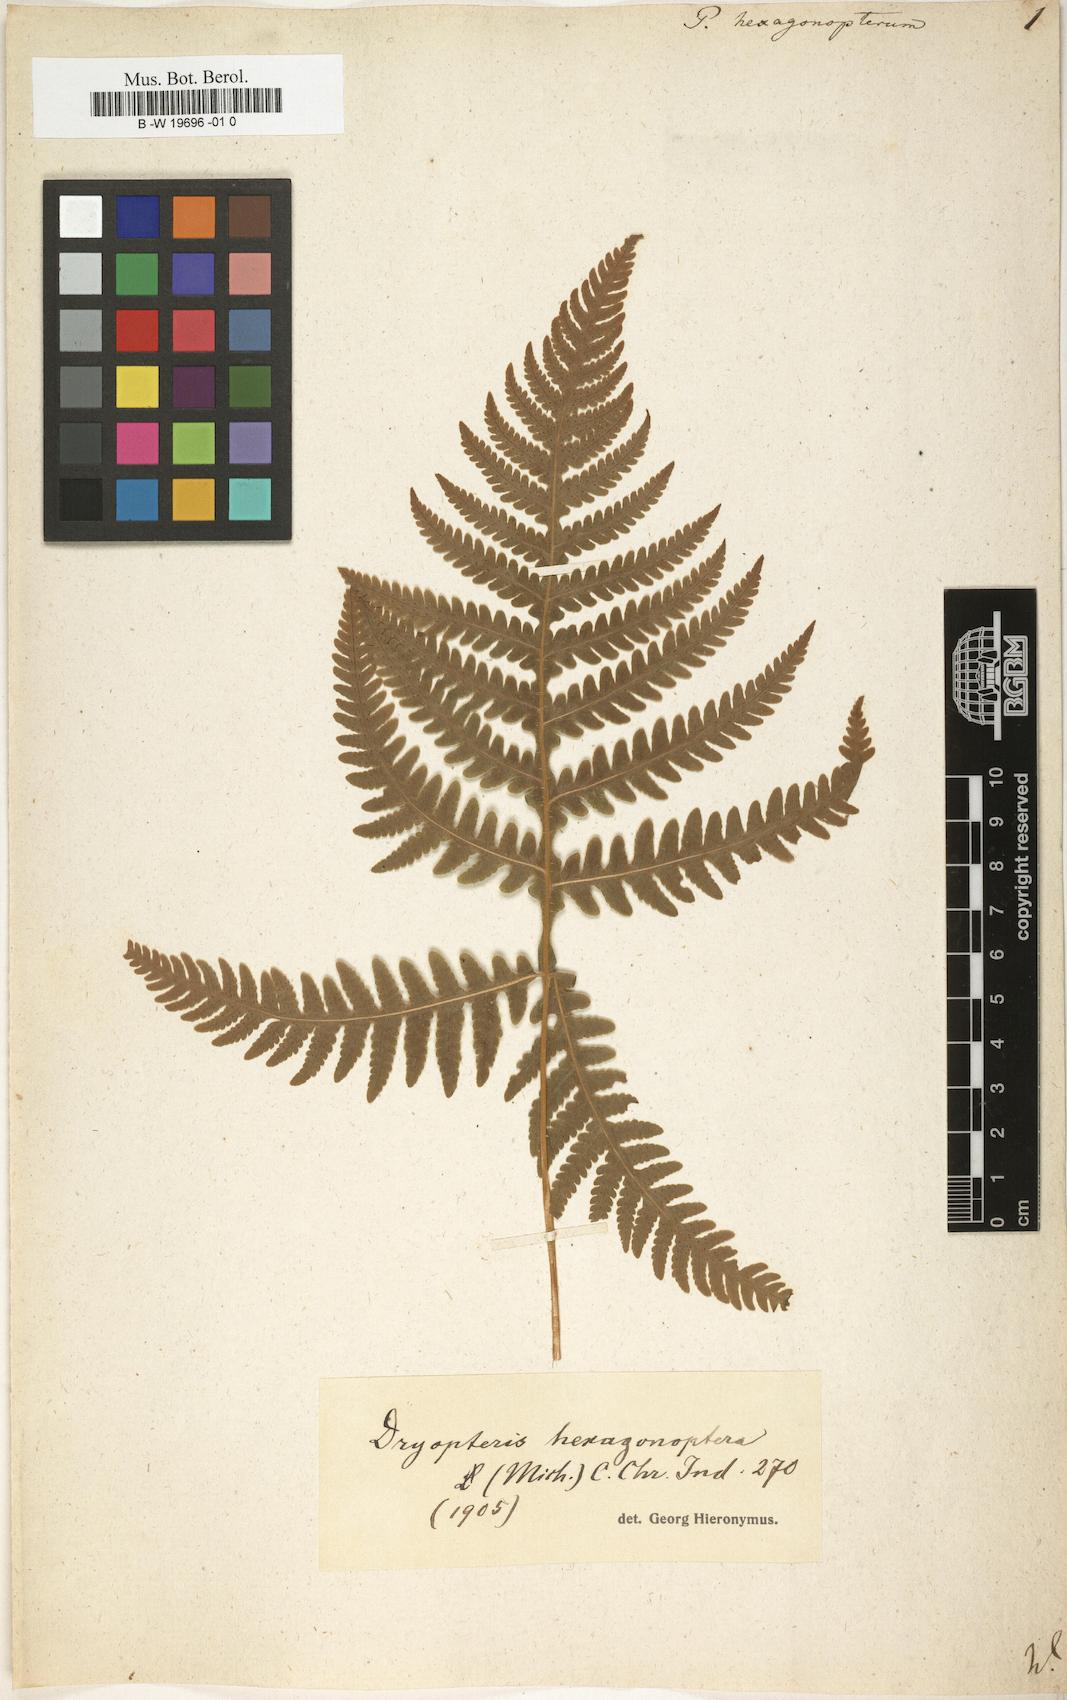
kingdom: Plantae
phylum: Tracheophyta
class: Polypodiopsida
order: Polypodiales
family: Thelypteridaceae
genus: Phegopteris
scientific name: Phegopteris hexagonoptera
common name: Broad beech fern
